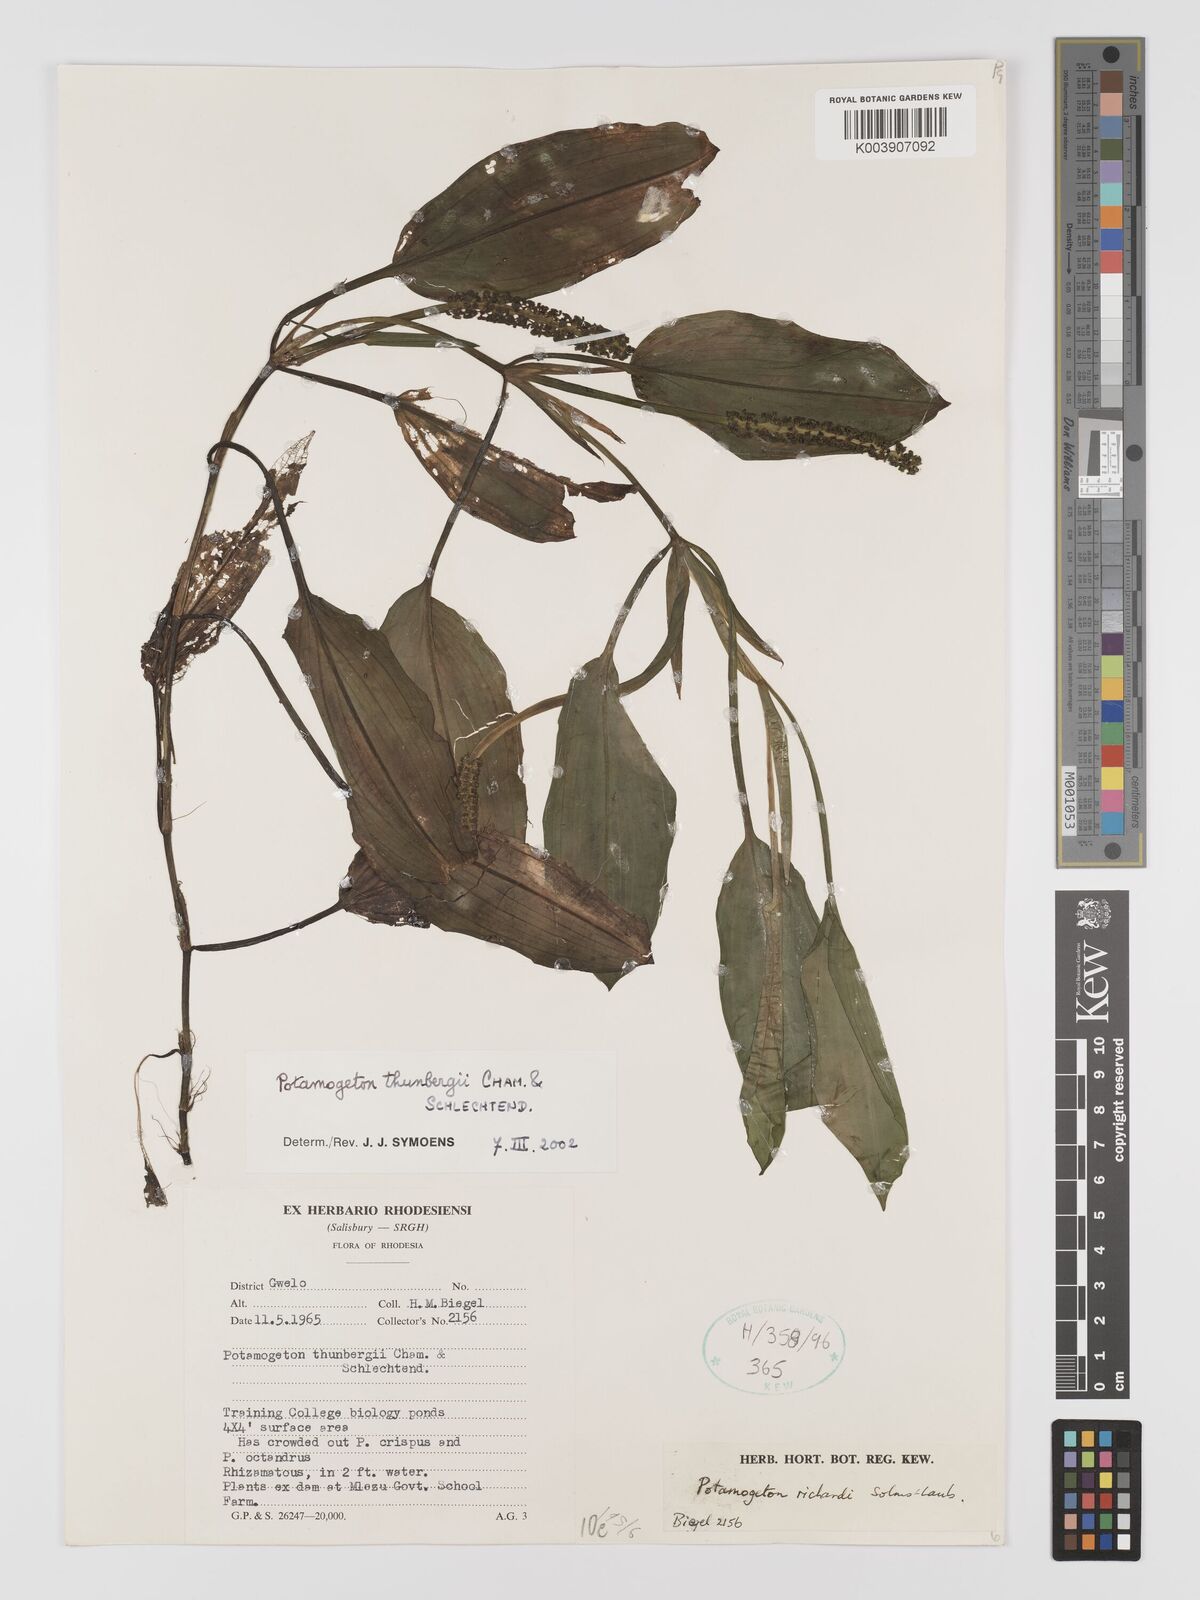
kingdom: Plantae
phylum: Tracheophyta
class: Liliopsida
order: Alismatales
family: Potamogetonaceae
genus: Potamogeton
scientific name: Potamogeton nodosus
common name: Loddon pondweed
